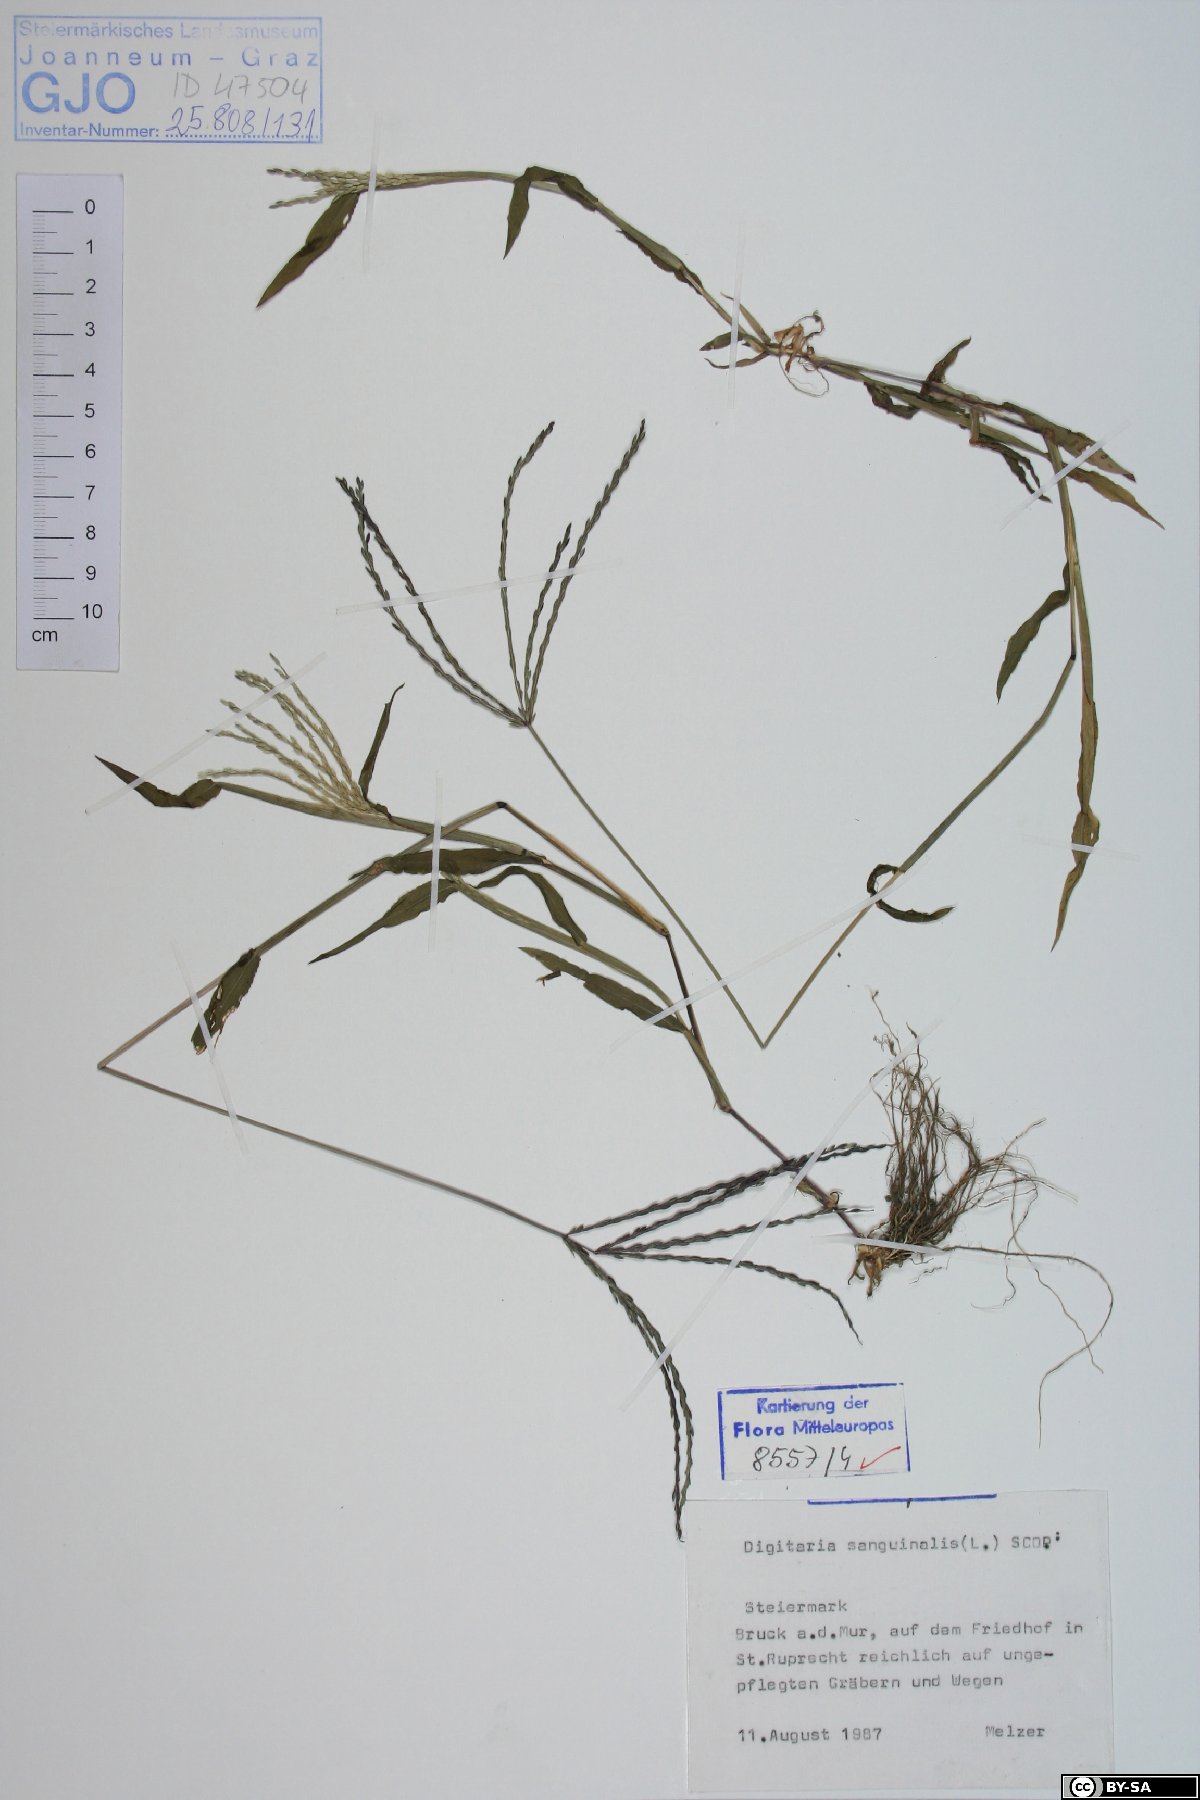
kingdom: Plantae
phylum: Tracheophyta
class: Liliopsida
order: Poales
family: Poaceae
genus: Digitaria
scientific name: Digitaria sanguinalis
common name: Hairy crabgrass
